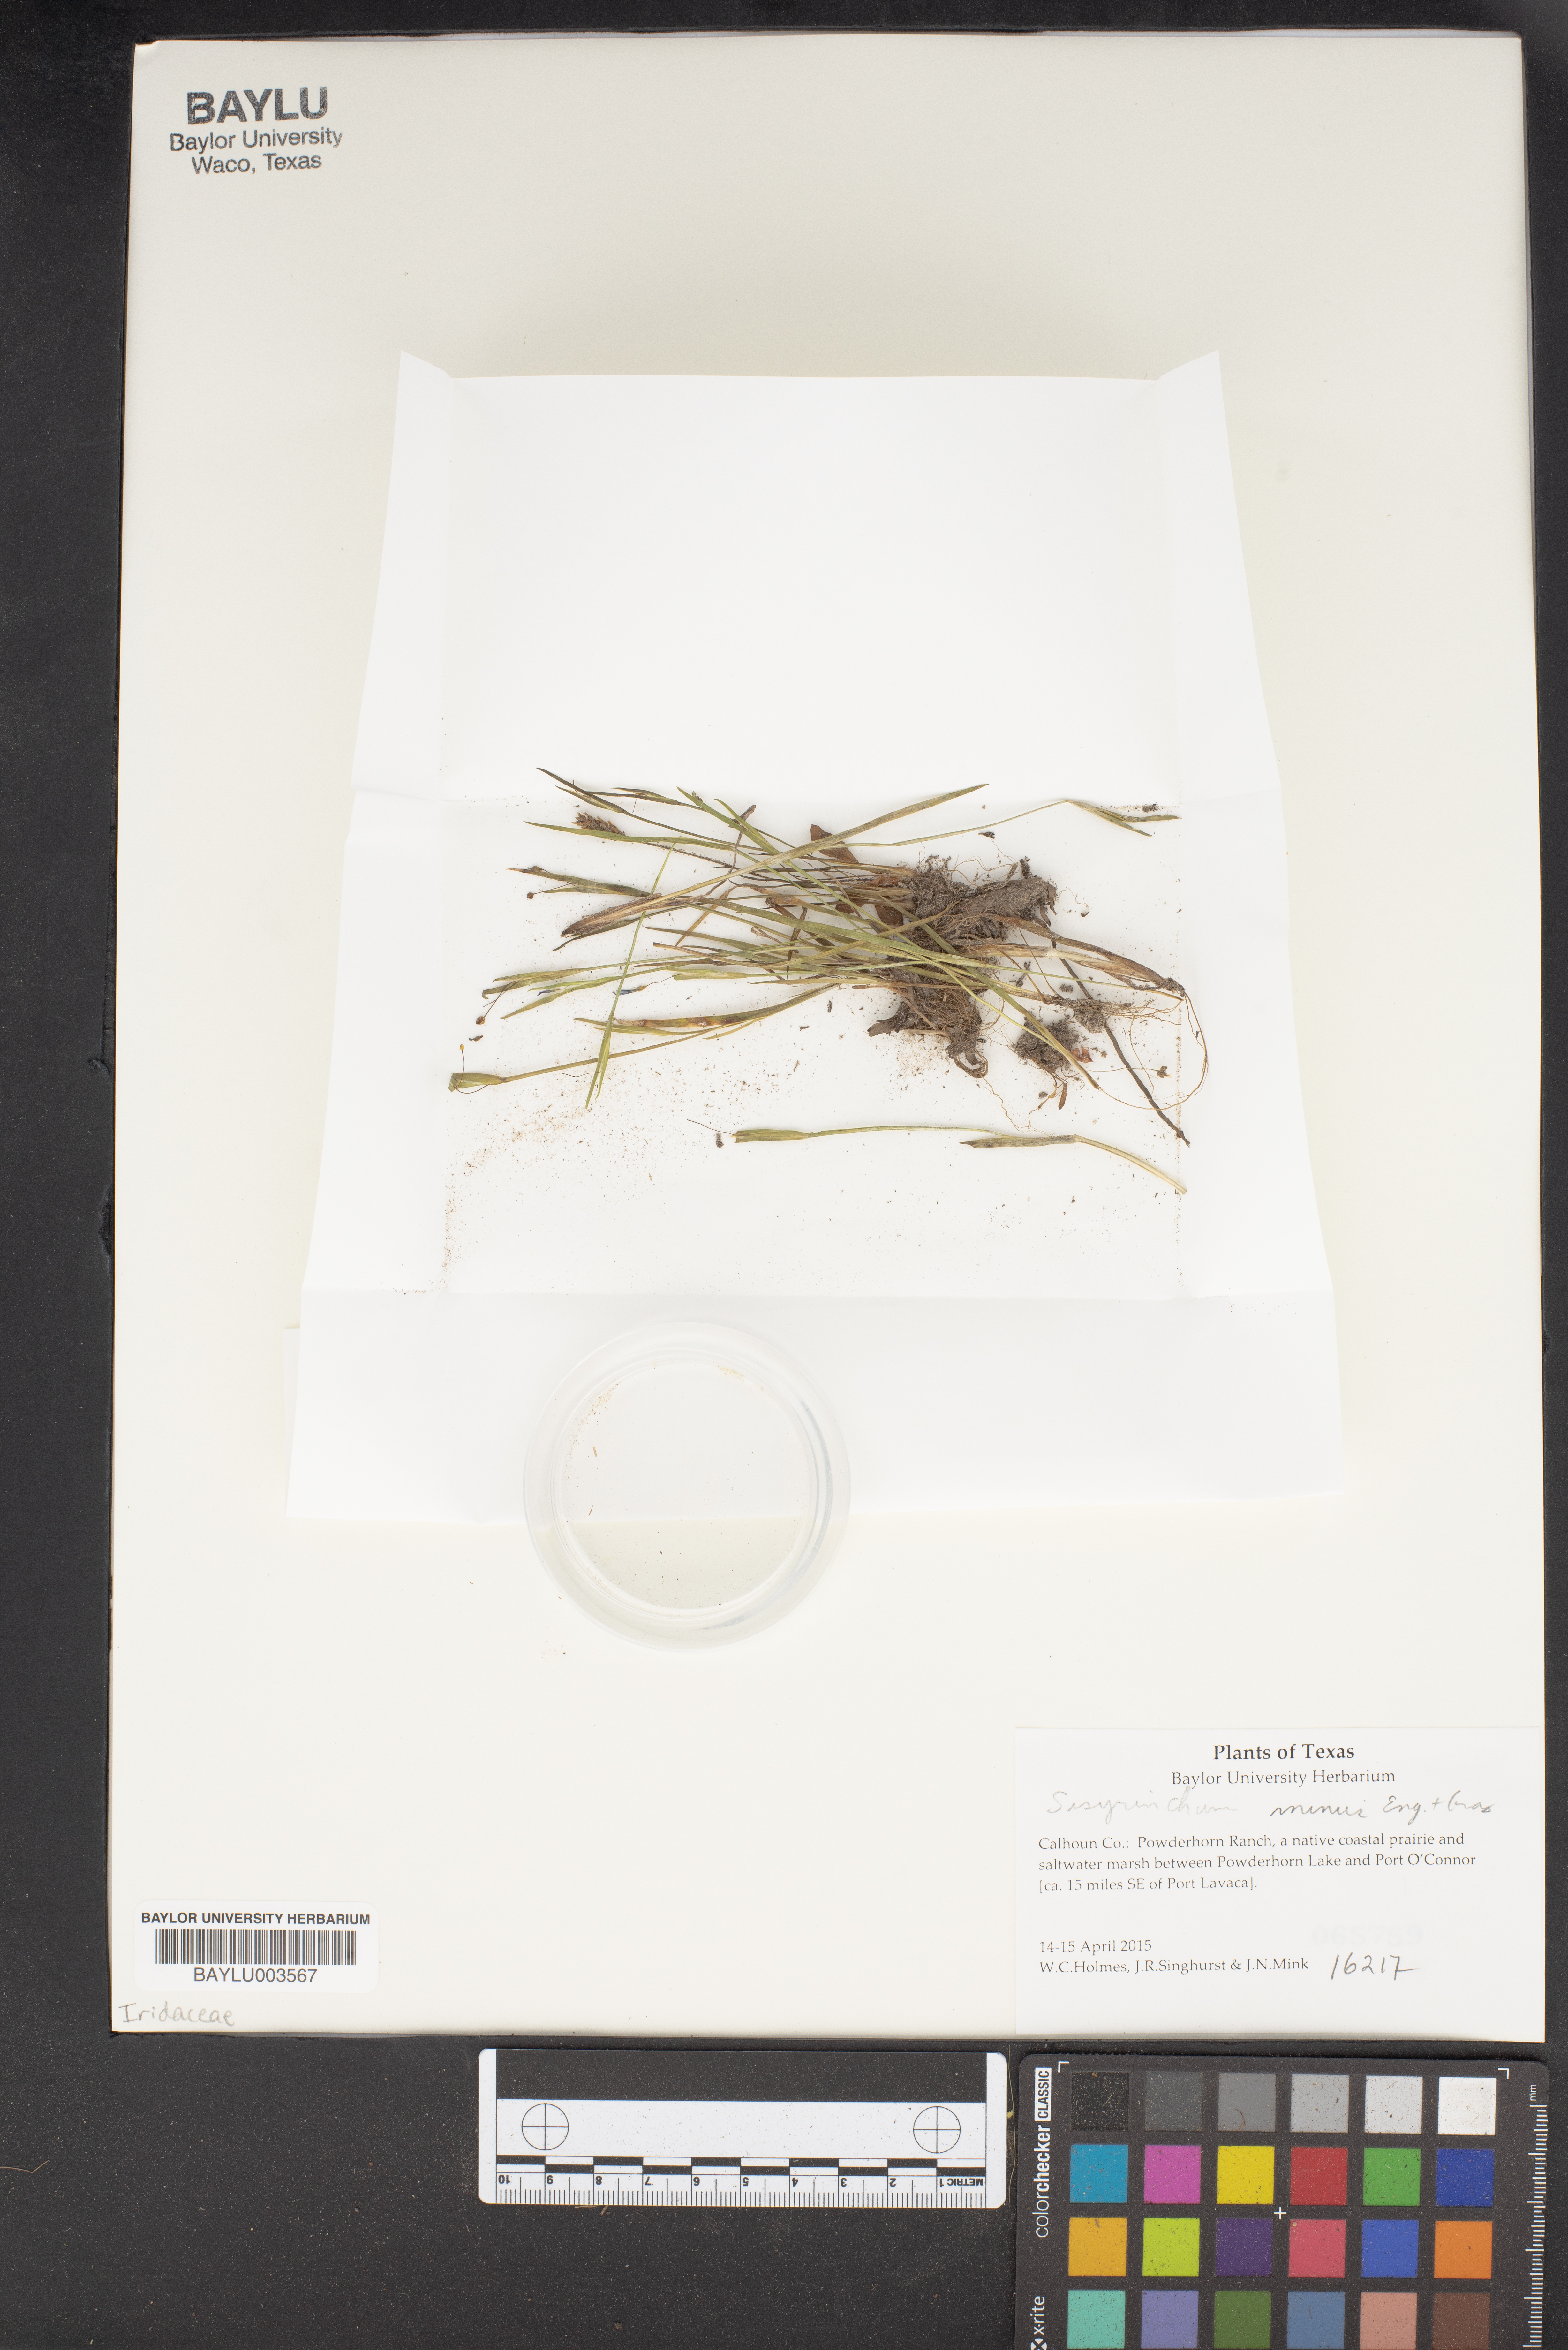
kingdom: Plantae
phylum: Tracheophyta
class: Liliopsida
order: Asparagales
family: Iridaceae
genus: Sisyrinchium
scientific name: Sisyrinchium minus
